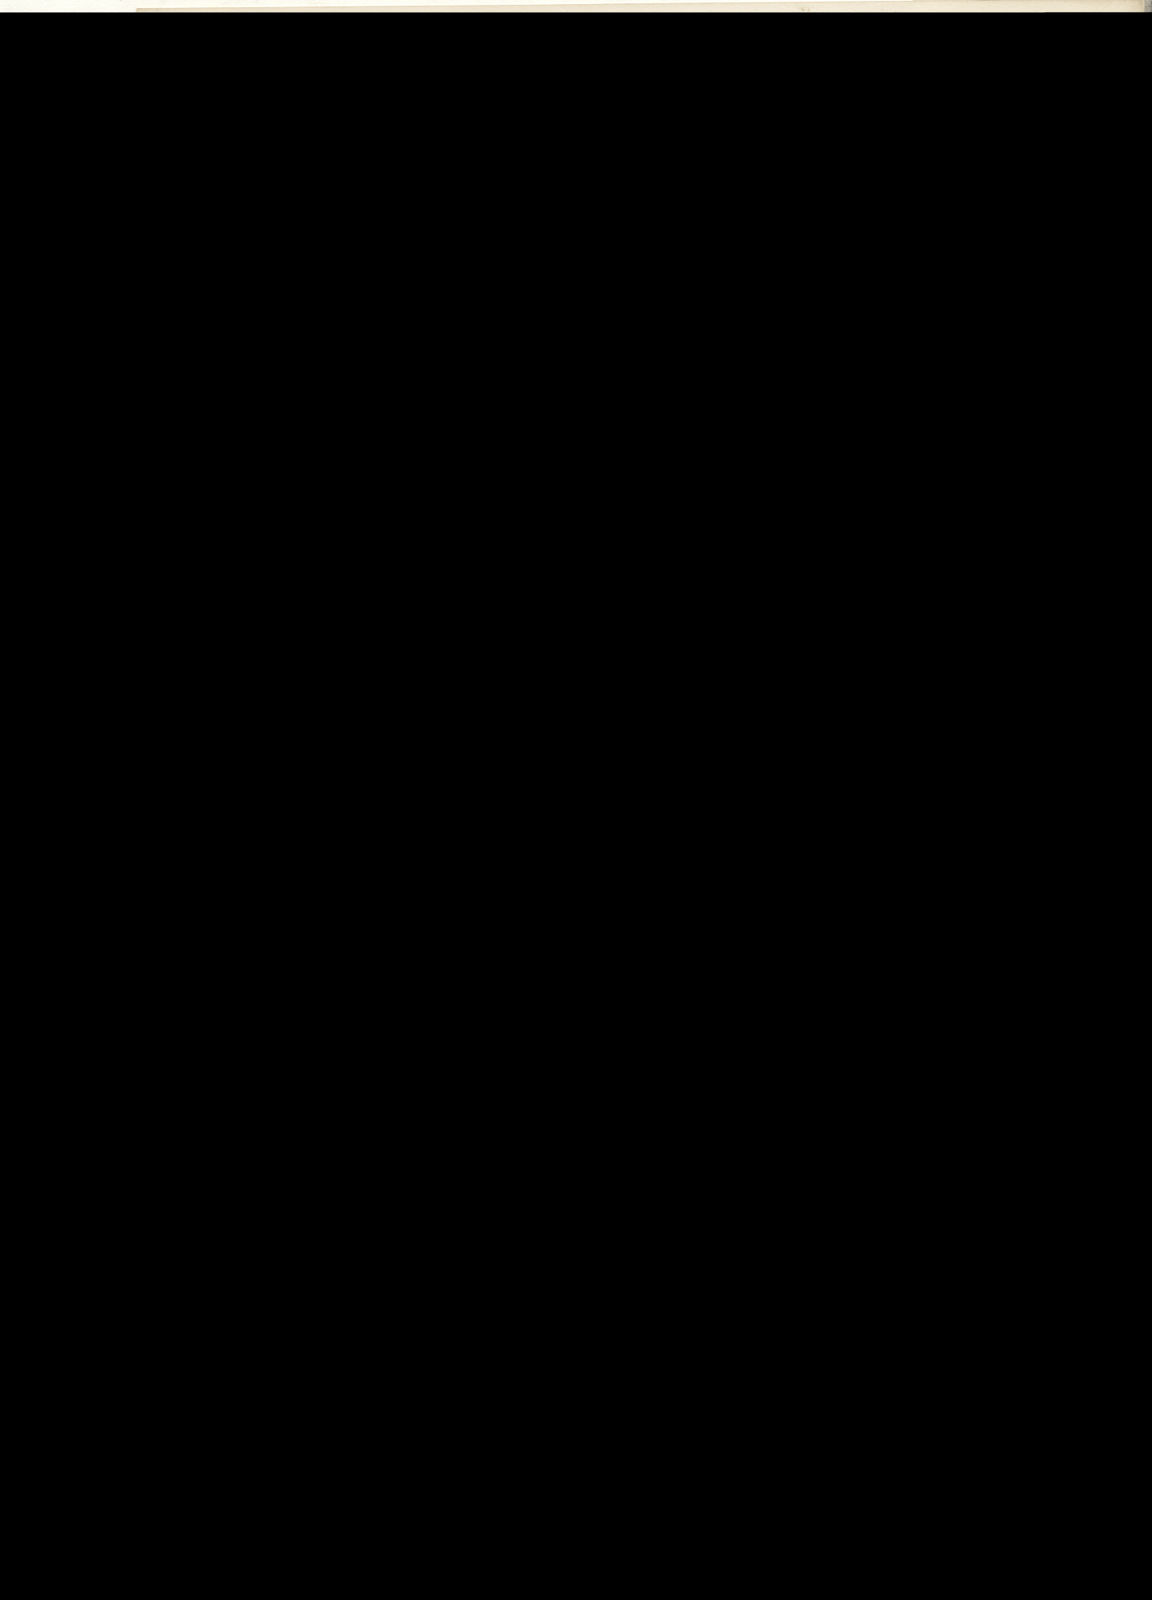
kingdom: Plantae
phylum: Tracheophyta
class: Magnoliopsida
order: Caryophyllales
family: Aizoaceae
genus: Mesembryanthemum
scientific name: Mesembryanthemum holense
